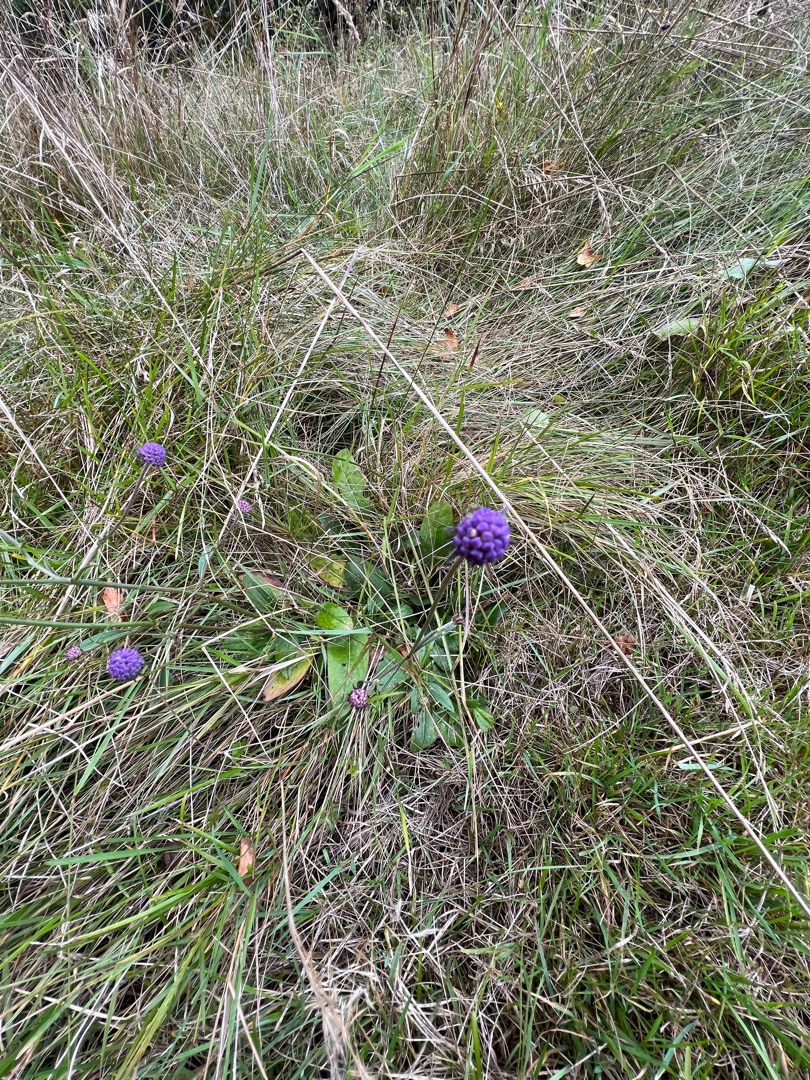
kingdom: Plantae
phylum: Tracheophyta
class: Magnoliopsida
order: Dipsacales
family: Caprifoliaceae
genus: Succisa
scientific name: Succisa pratensis
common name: Djævelsbid
